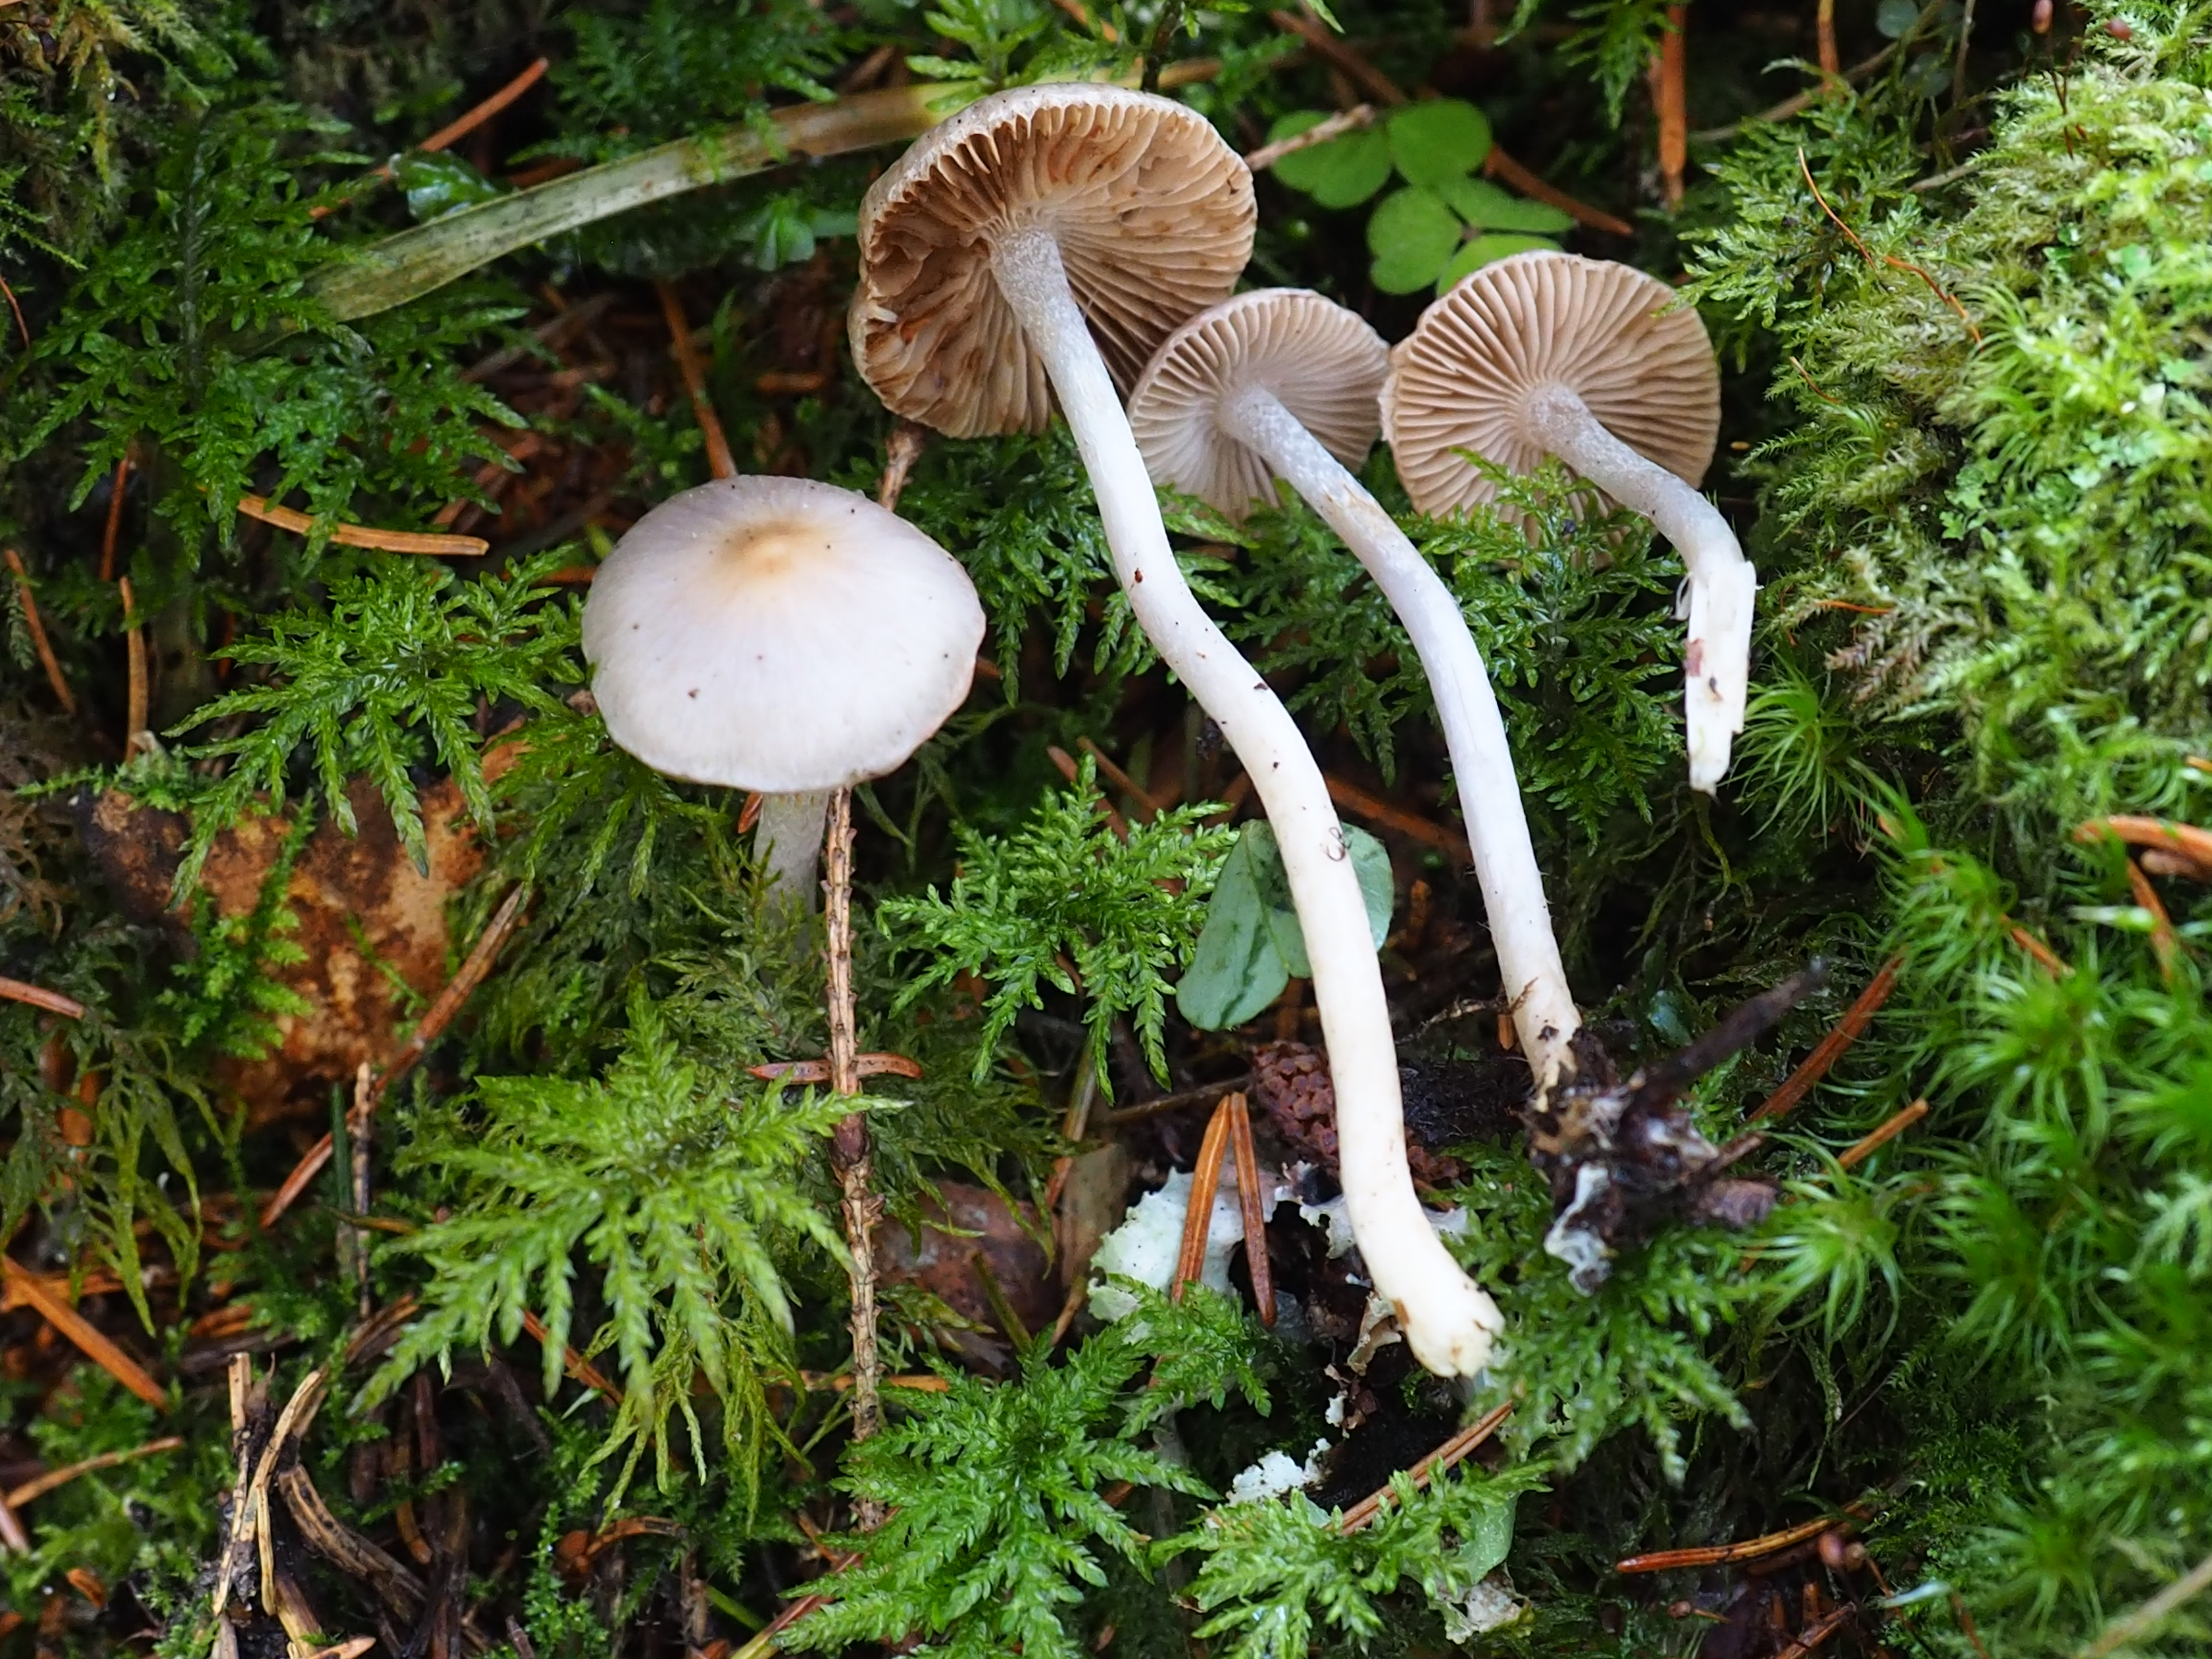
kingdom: Fungi
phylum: Basidiomycota
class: Agaricomycetes
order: Agaricales
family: Inocybaceae
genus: Inocybe
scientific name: Inocybe geophylla
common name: White fibrecap
